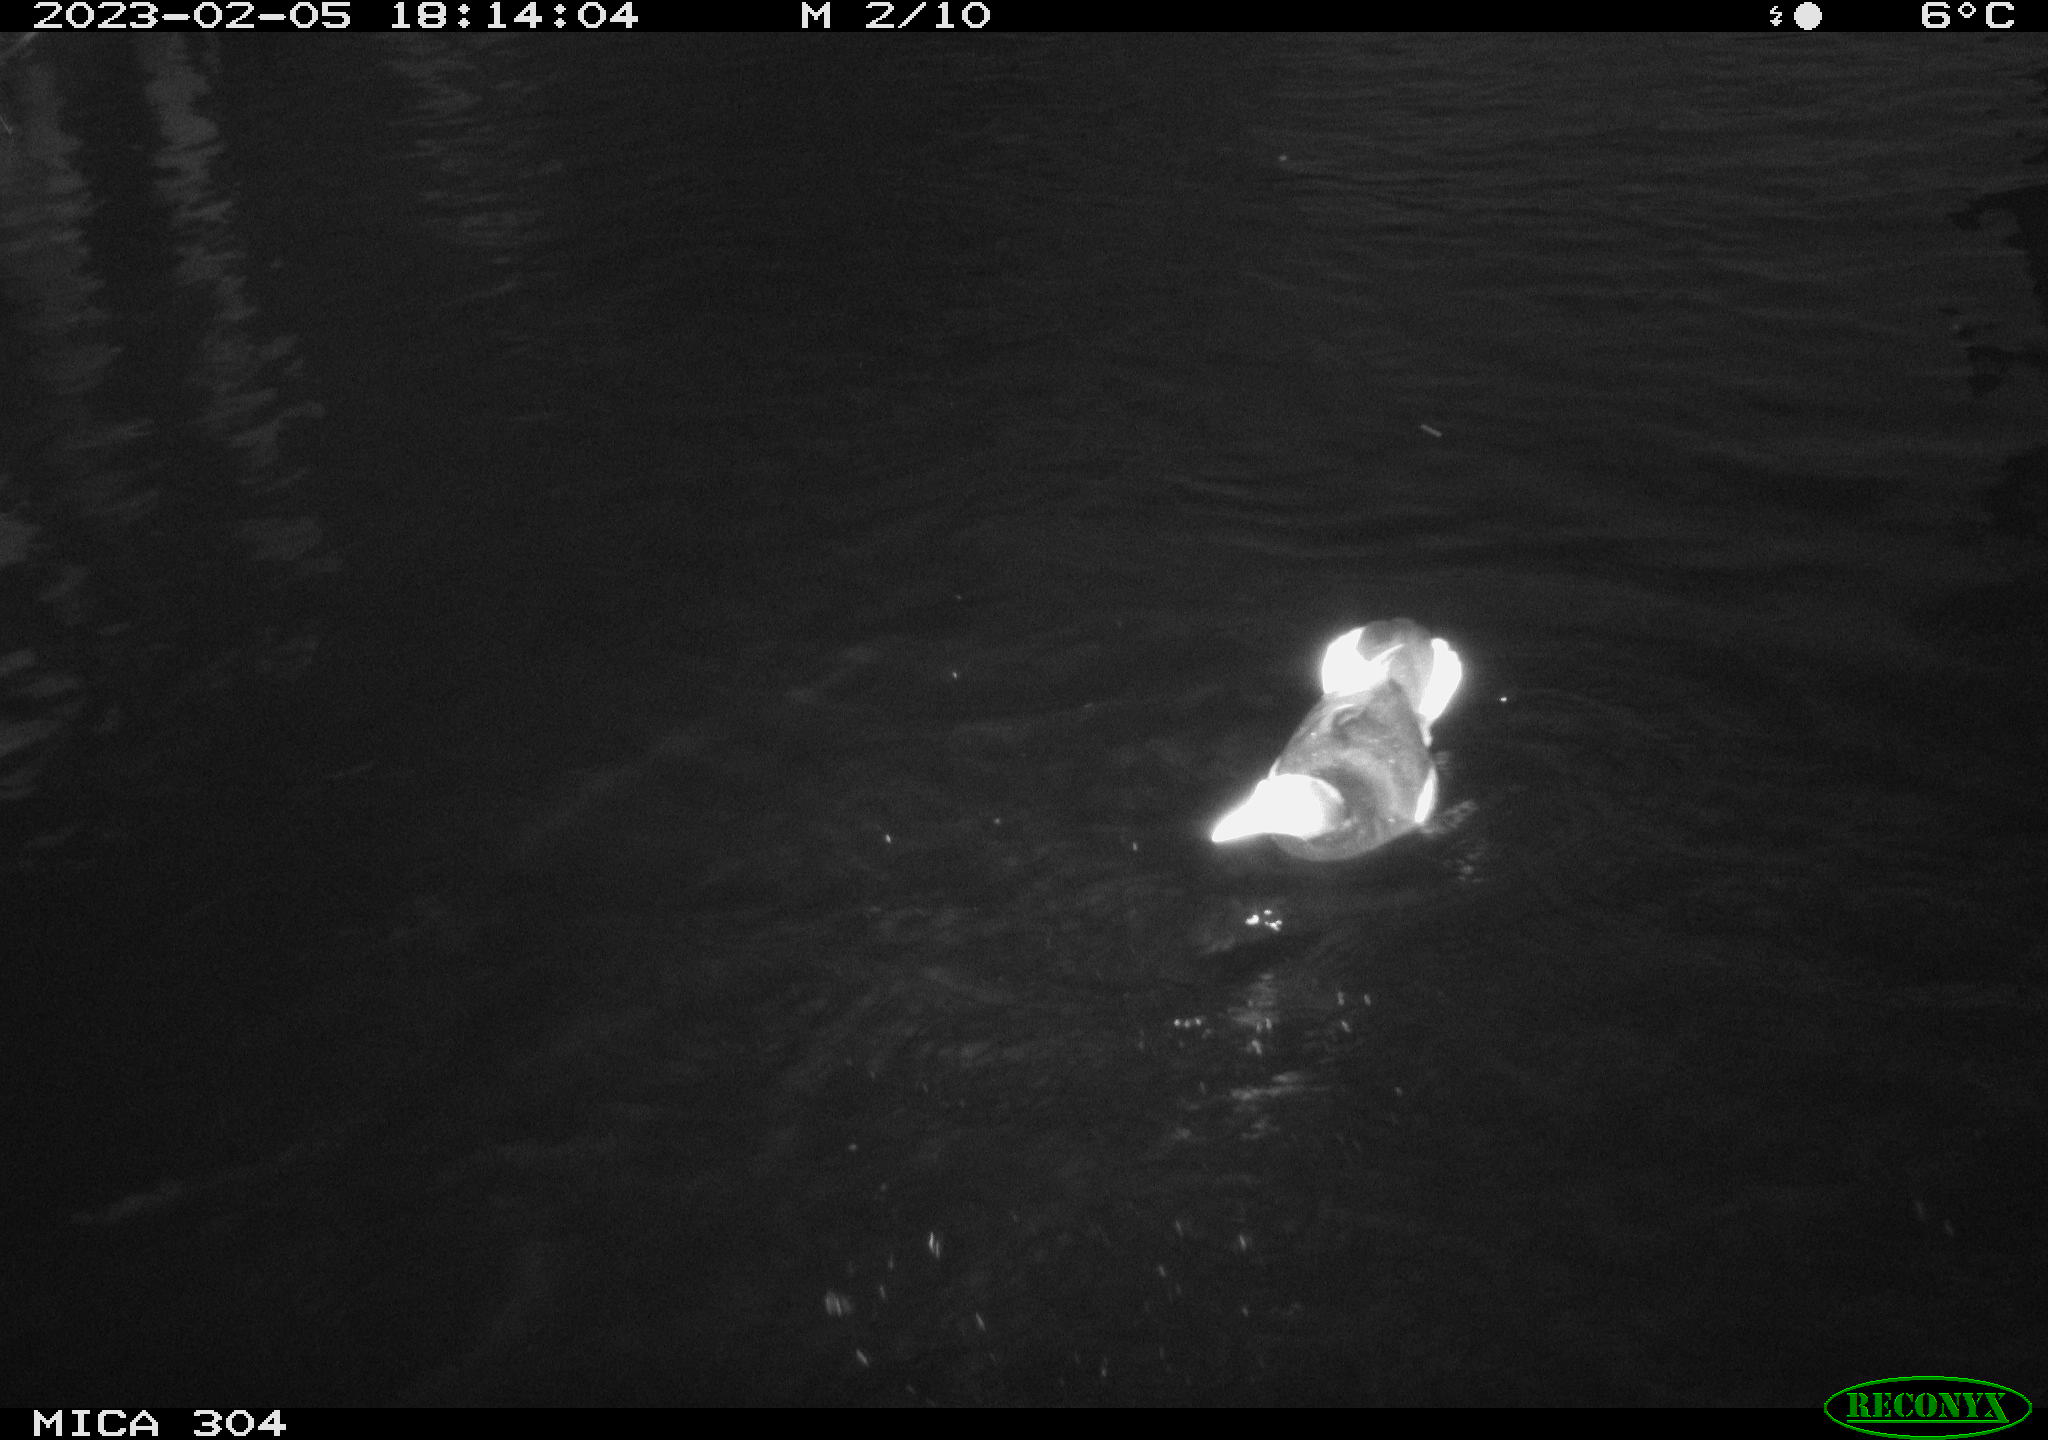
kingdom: Animalia
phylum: Chordata
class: Aves
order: Anseriformes
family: Anatidae
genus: Anas
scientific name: Anas
